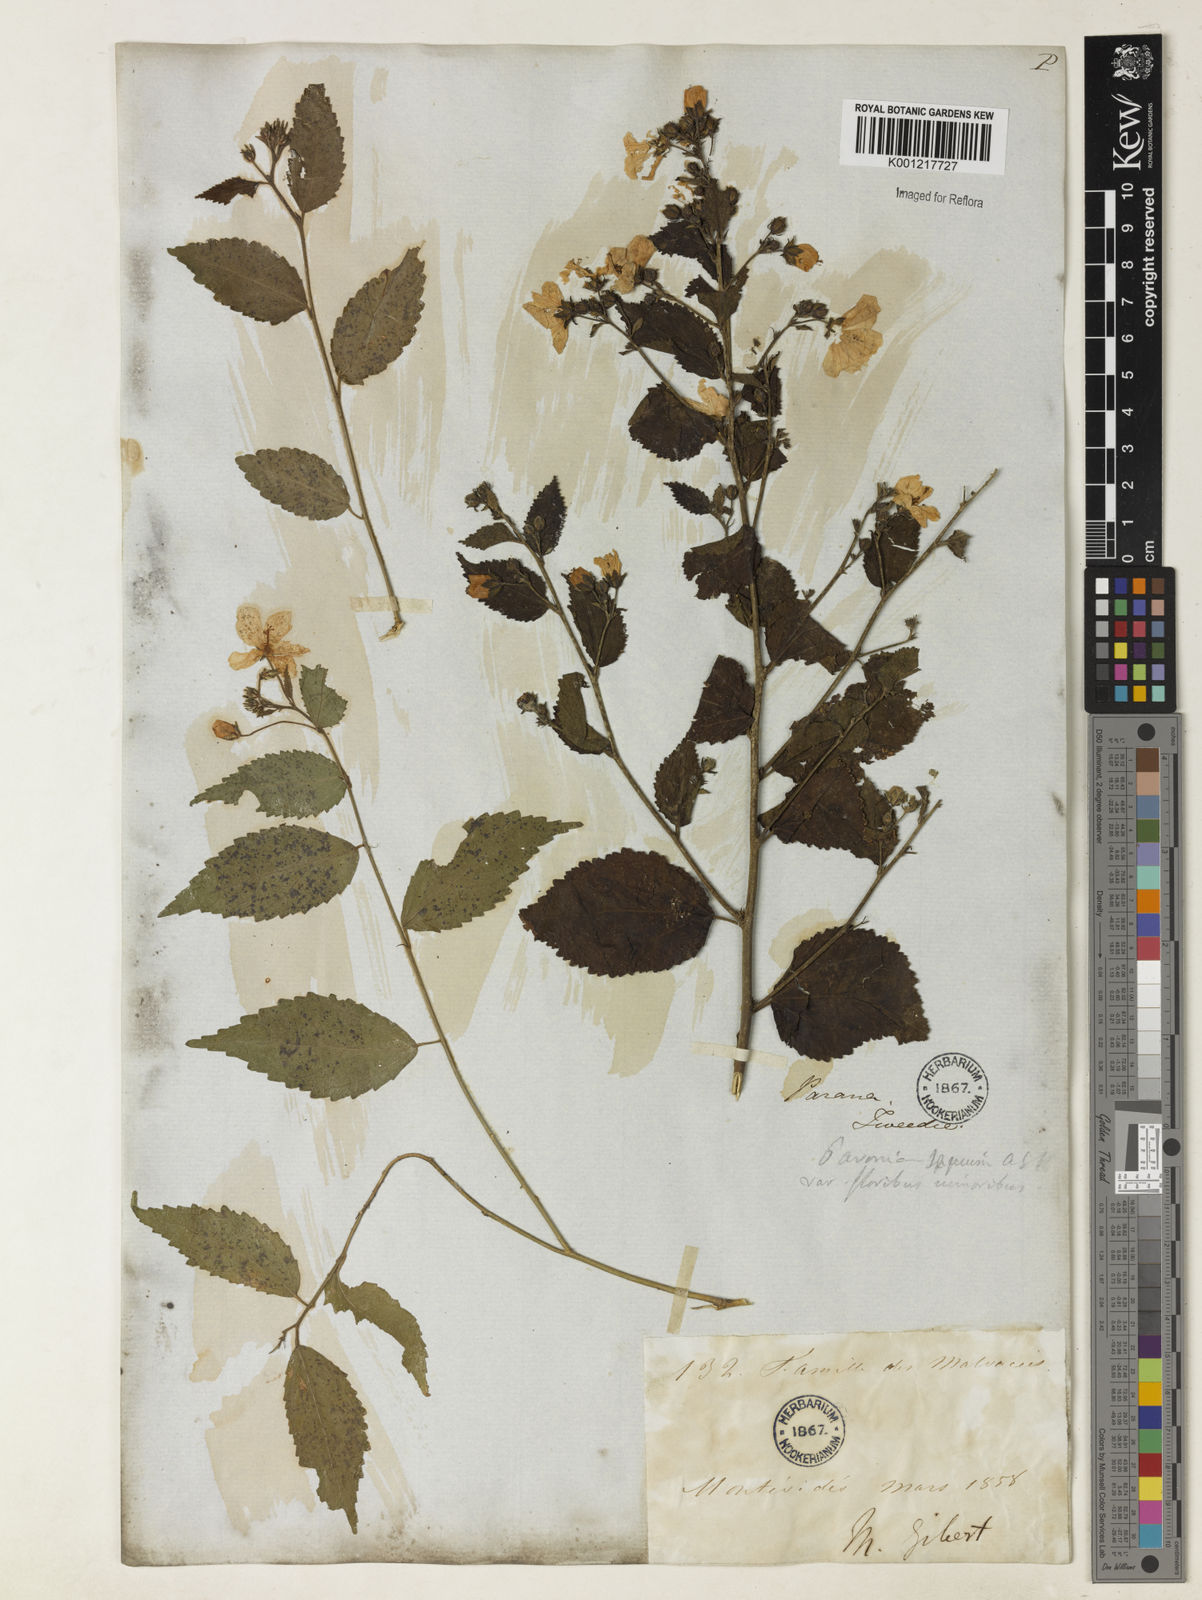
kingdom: Plantae
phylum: Tracheophyta
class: Magnoliopsida
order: Malvales
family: Malvaceae
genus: Pavonia
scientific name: Pavonia sepium
